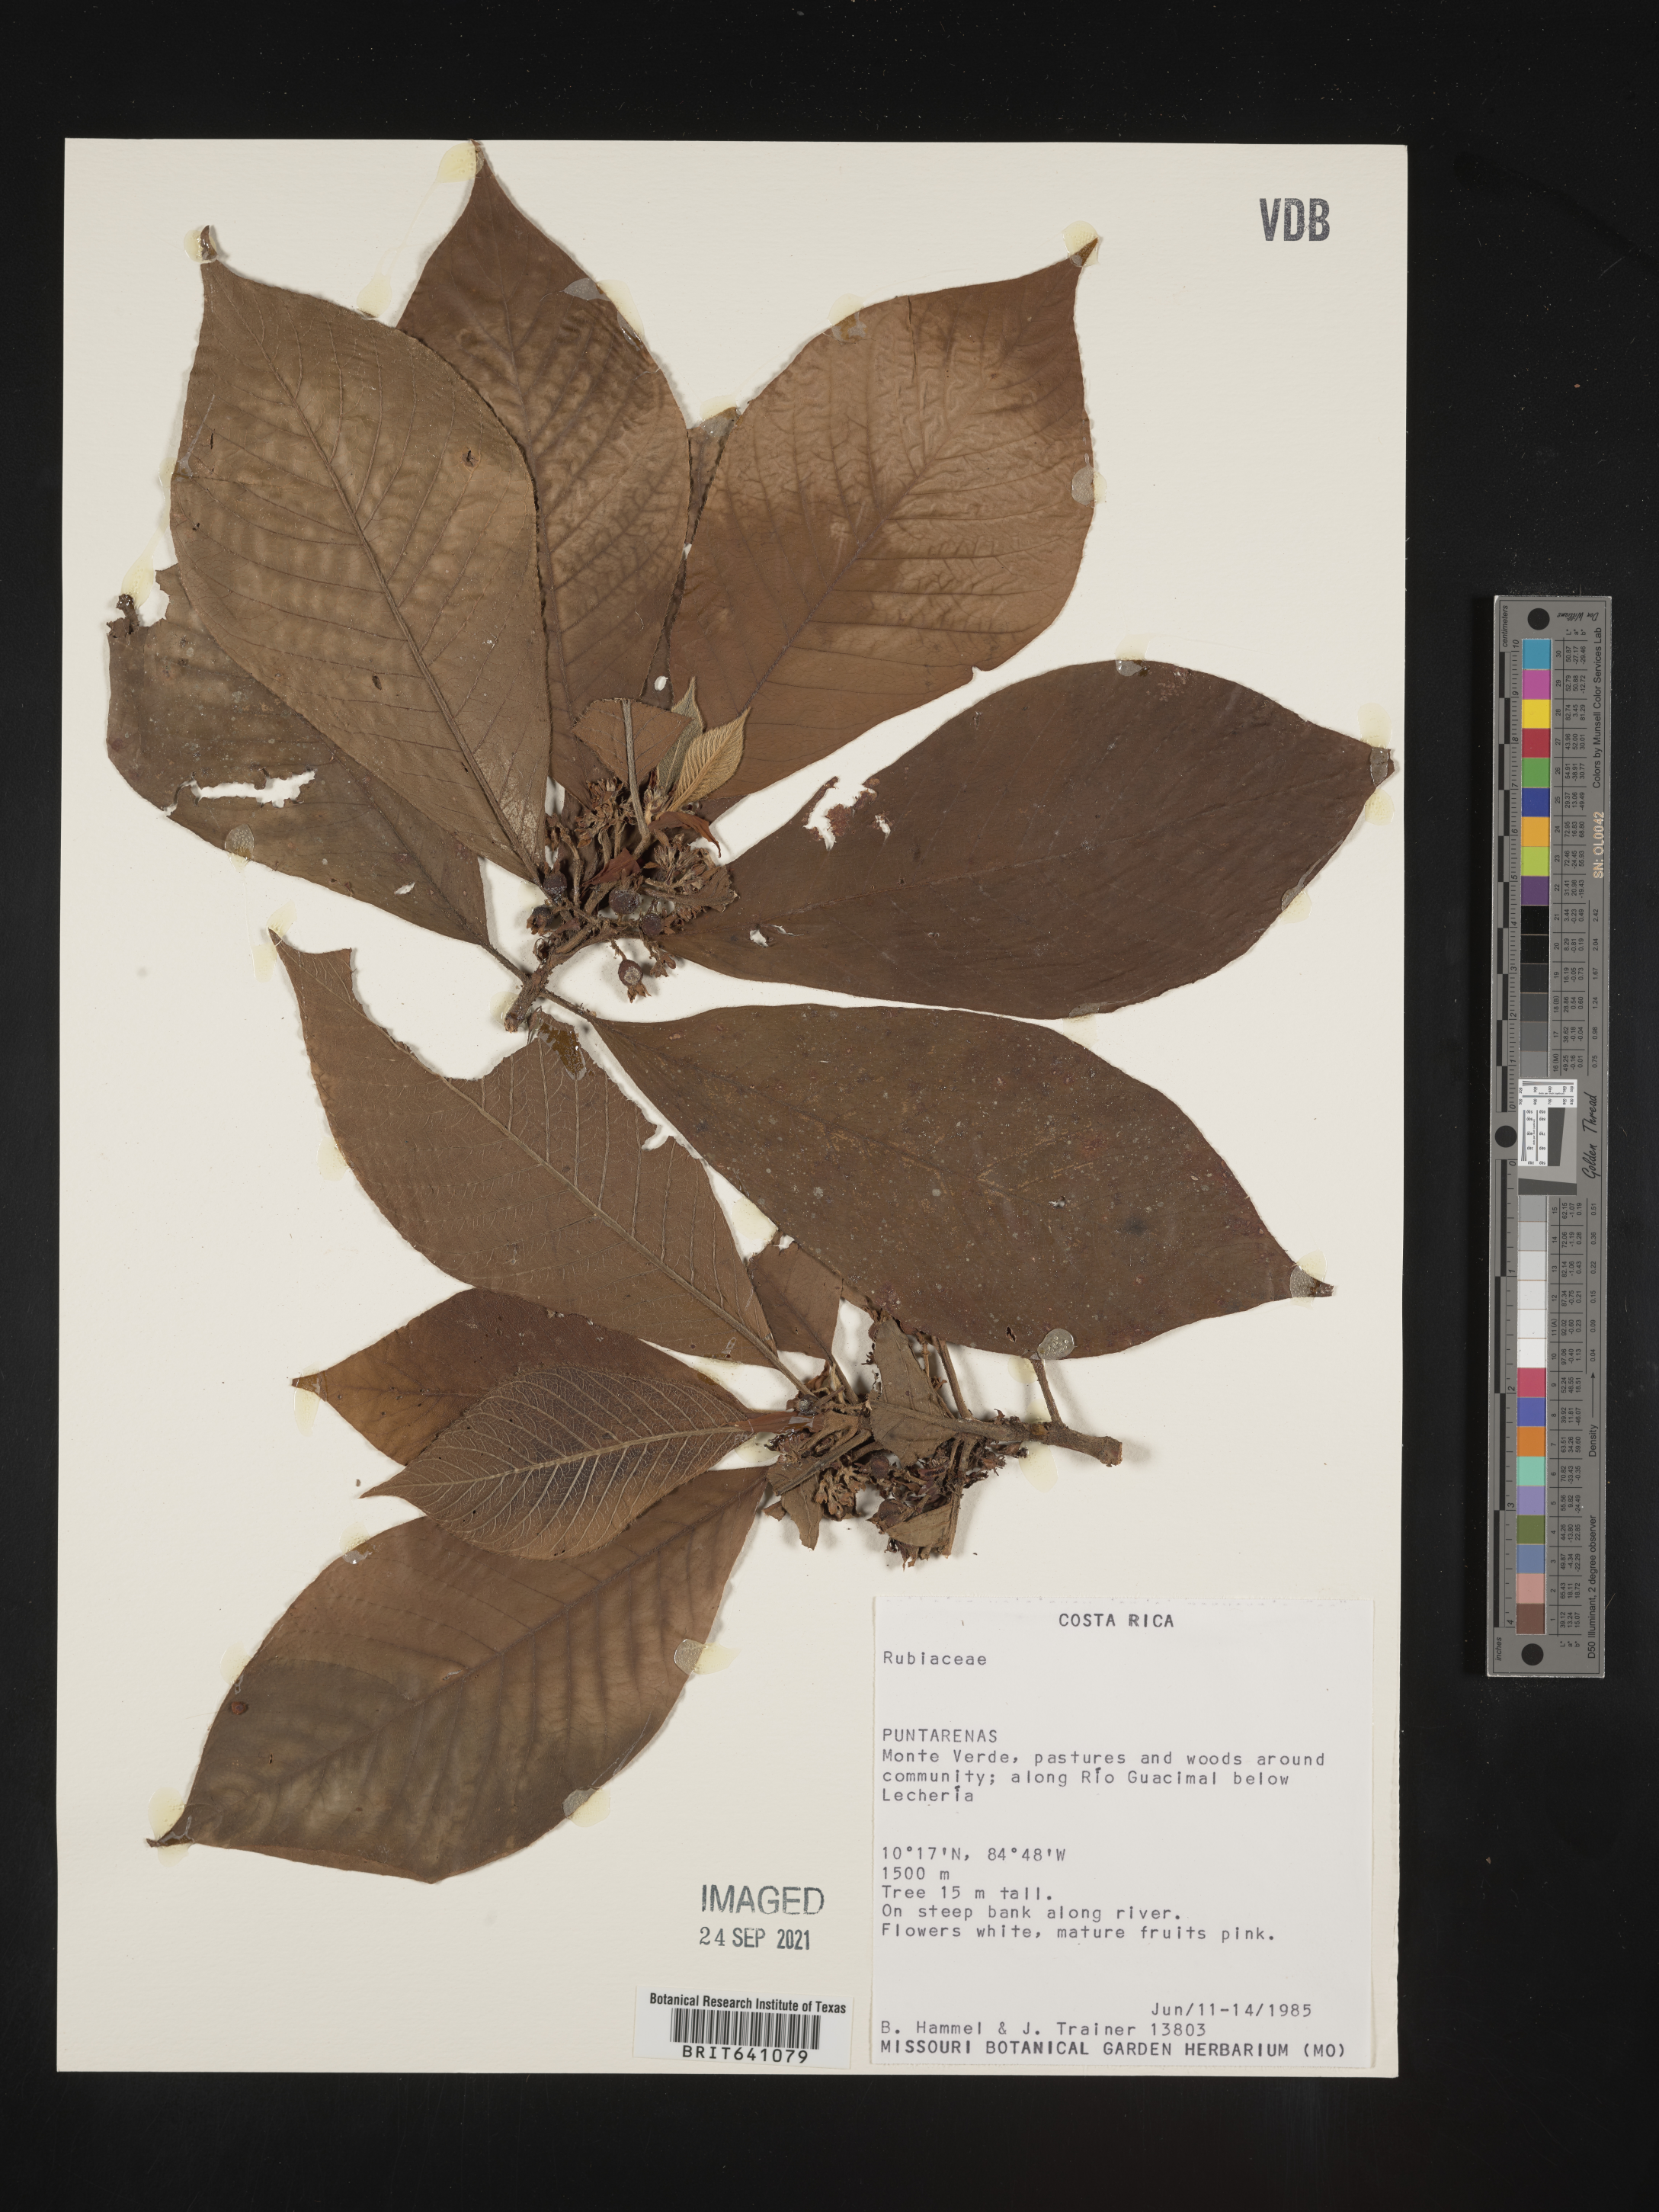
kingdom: Plantae
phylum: Tracheophyta
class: Magnoliopsida
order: Gentianales
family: Rubiaceae
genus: Pogonopus
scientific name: Pogonopus
